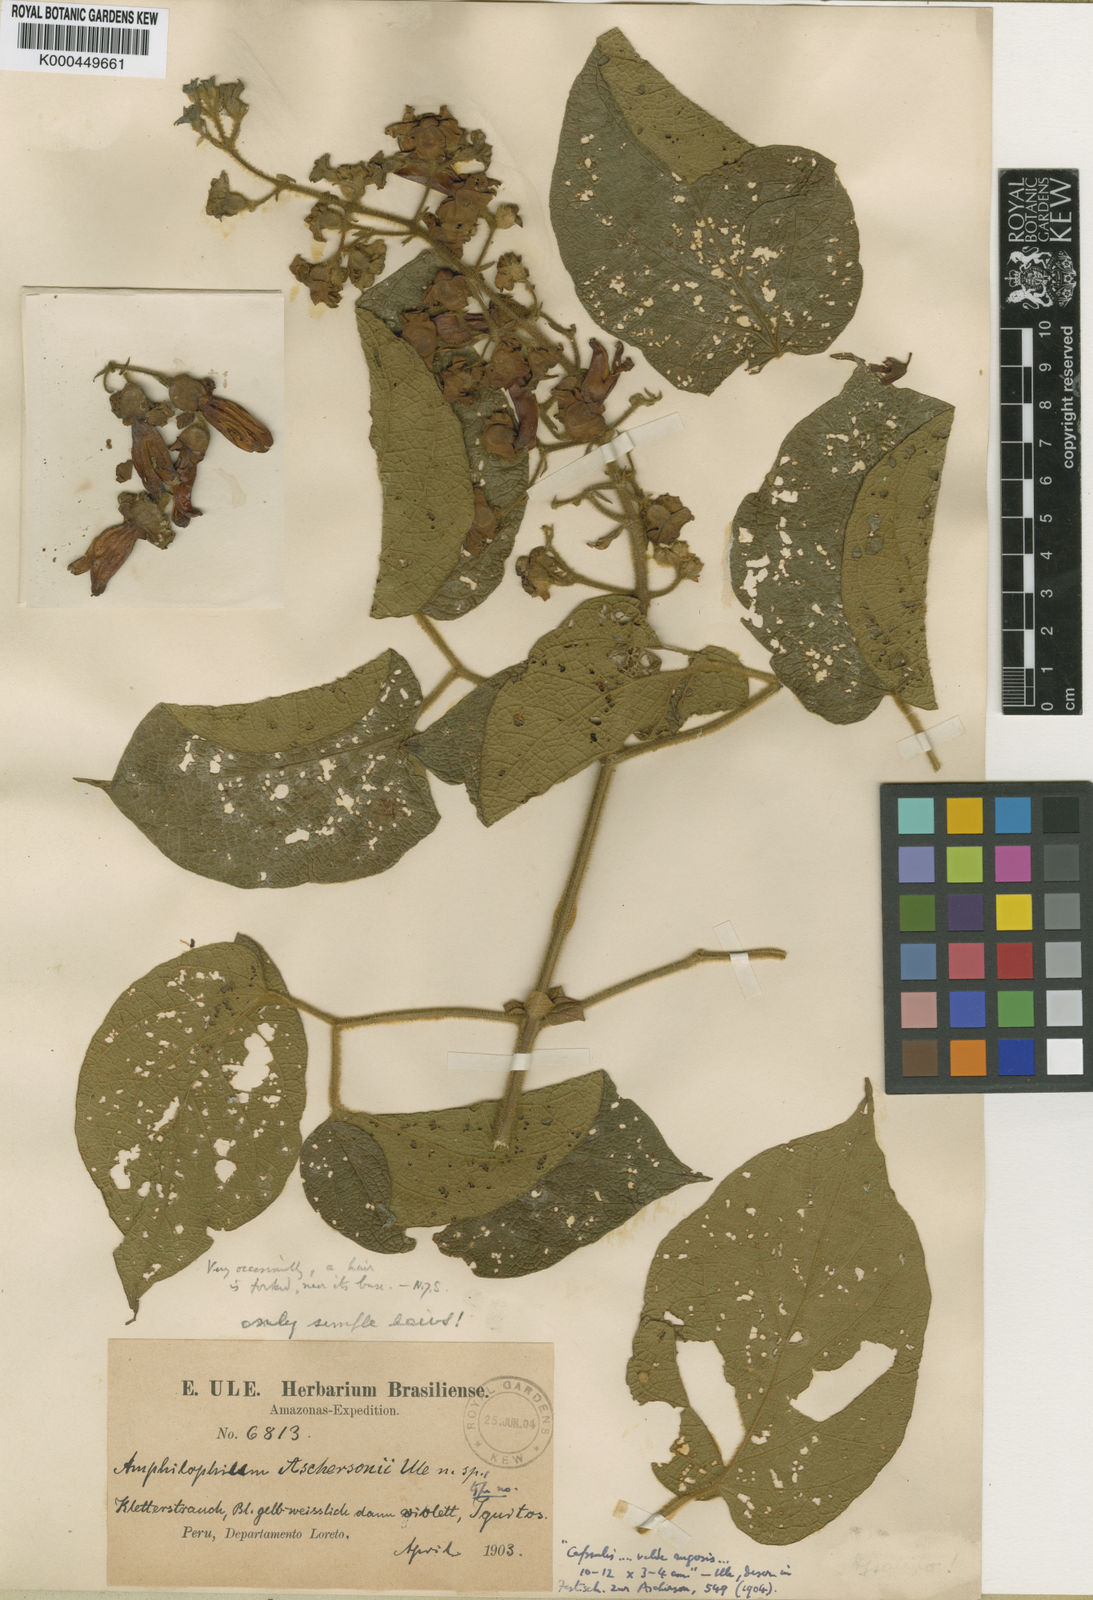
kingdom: Plantae
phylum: Tracheophyta
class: Magnoliopsida
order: Lamiales
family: Bignoniaceae
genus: Amphilophium
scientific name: Amphilophium pannosum
